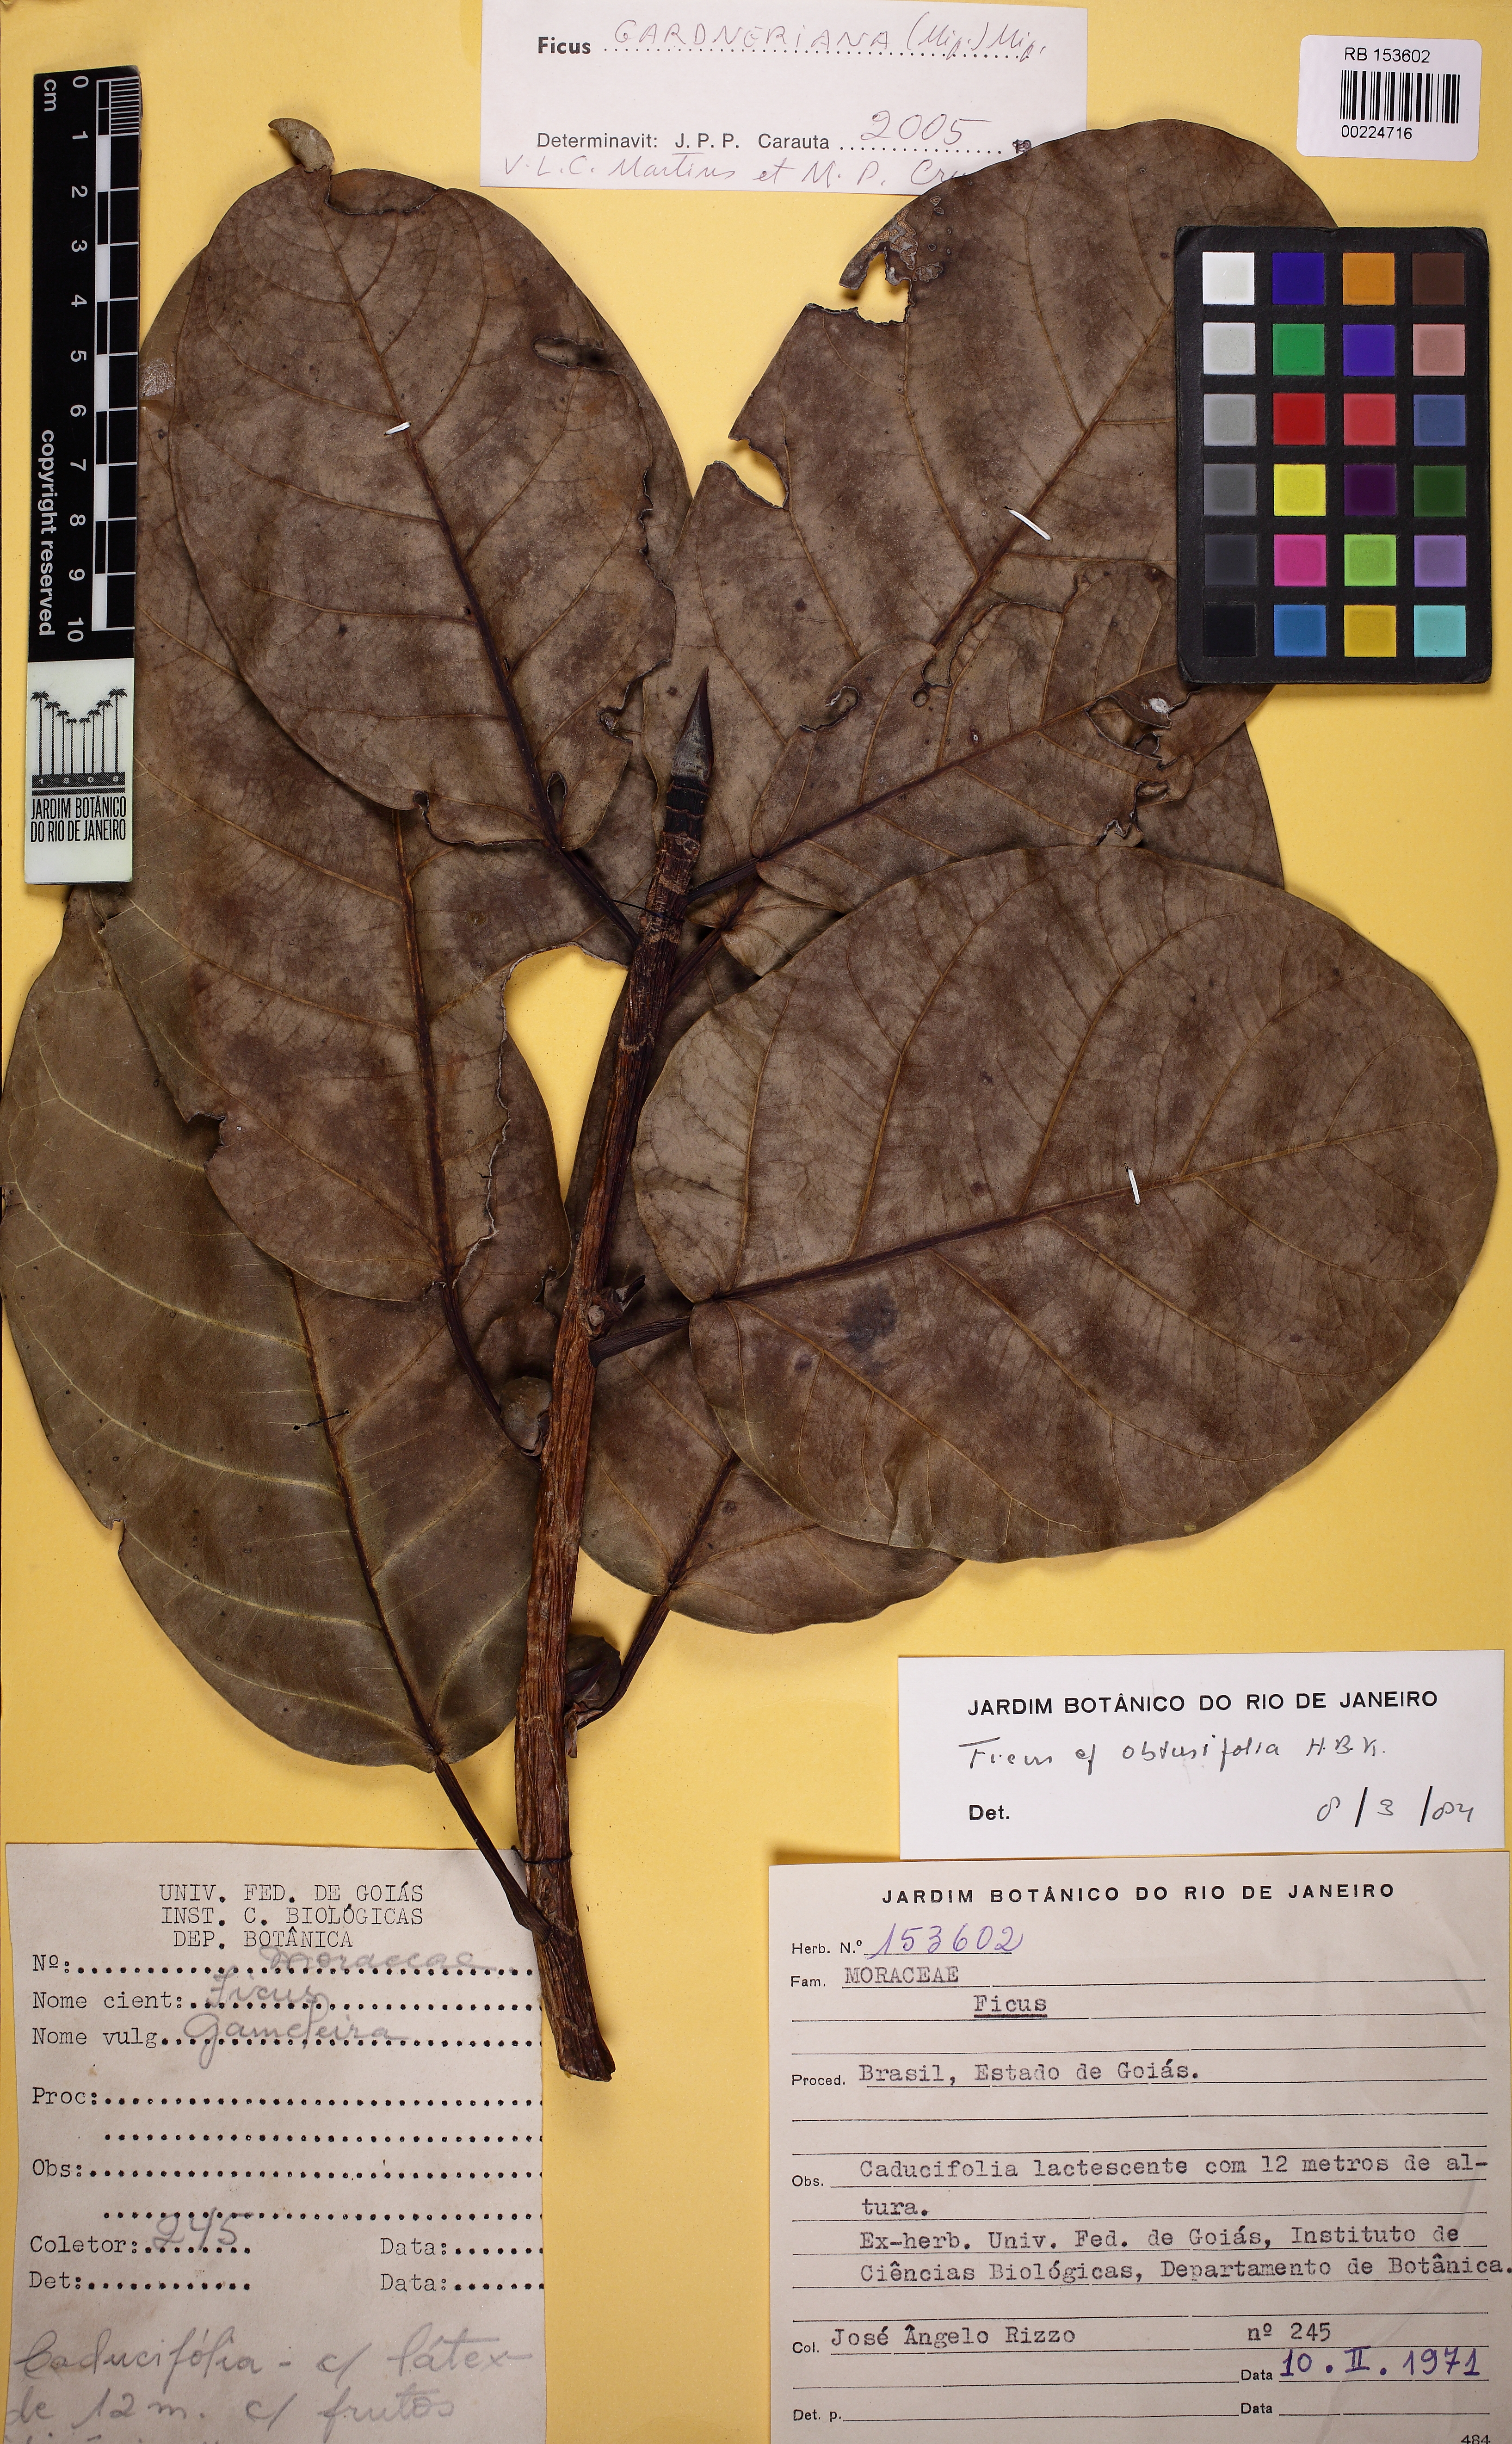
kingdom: Plantae
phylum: Tracheophyta
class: Magnoliopsida
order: Rosales
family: Moraceae
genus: Ficus
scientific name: Ficus obtusifolia
